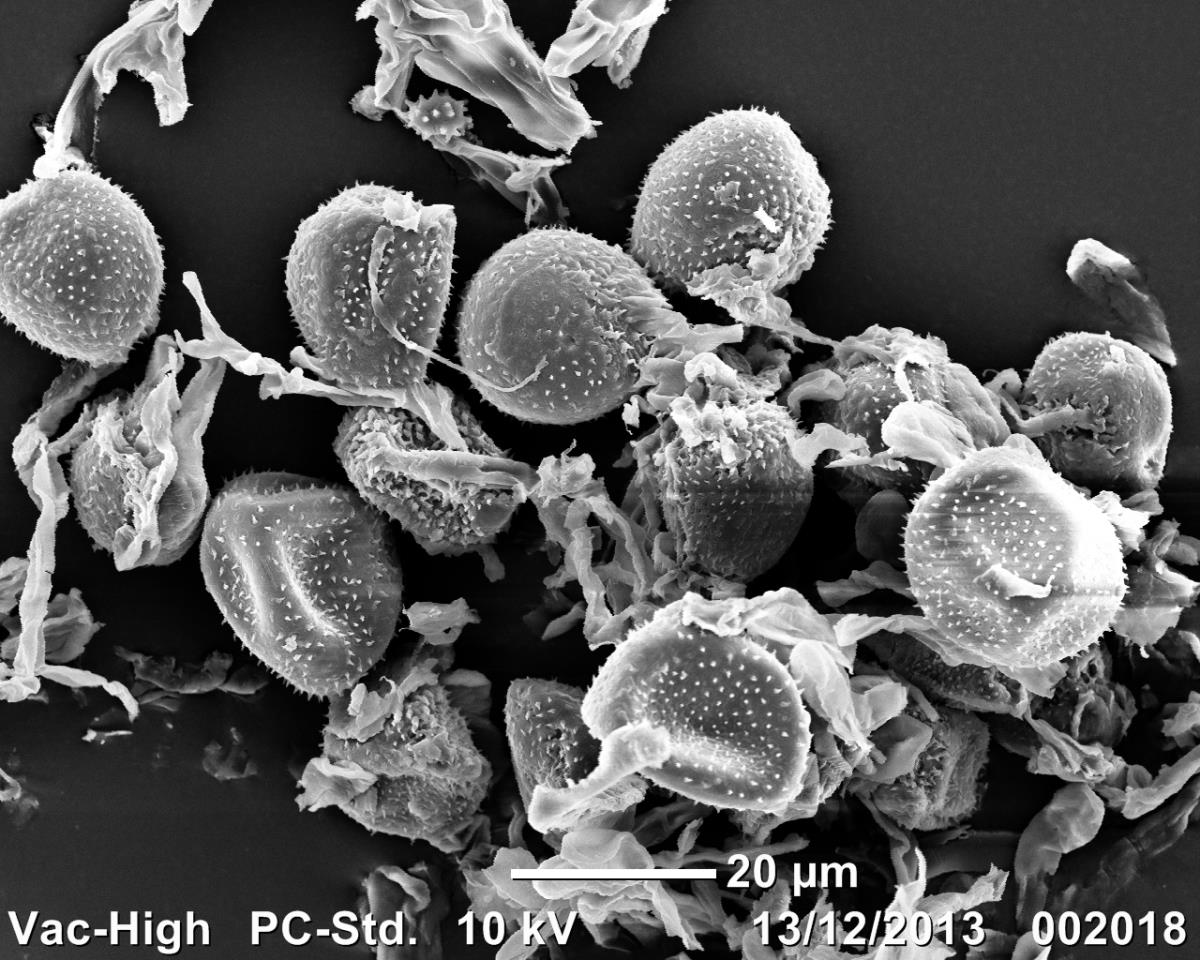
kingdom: Fungi
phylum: Basidiomycota
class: Pucciniomycetes
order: Pucciniales
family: Pucciniaceae
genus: Puccinia
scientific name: Puccinia hordei
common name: Barley leaf rust
